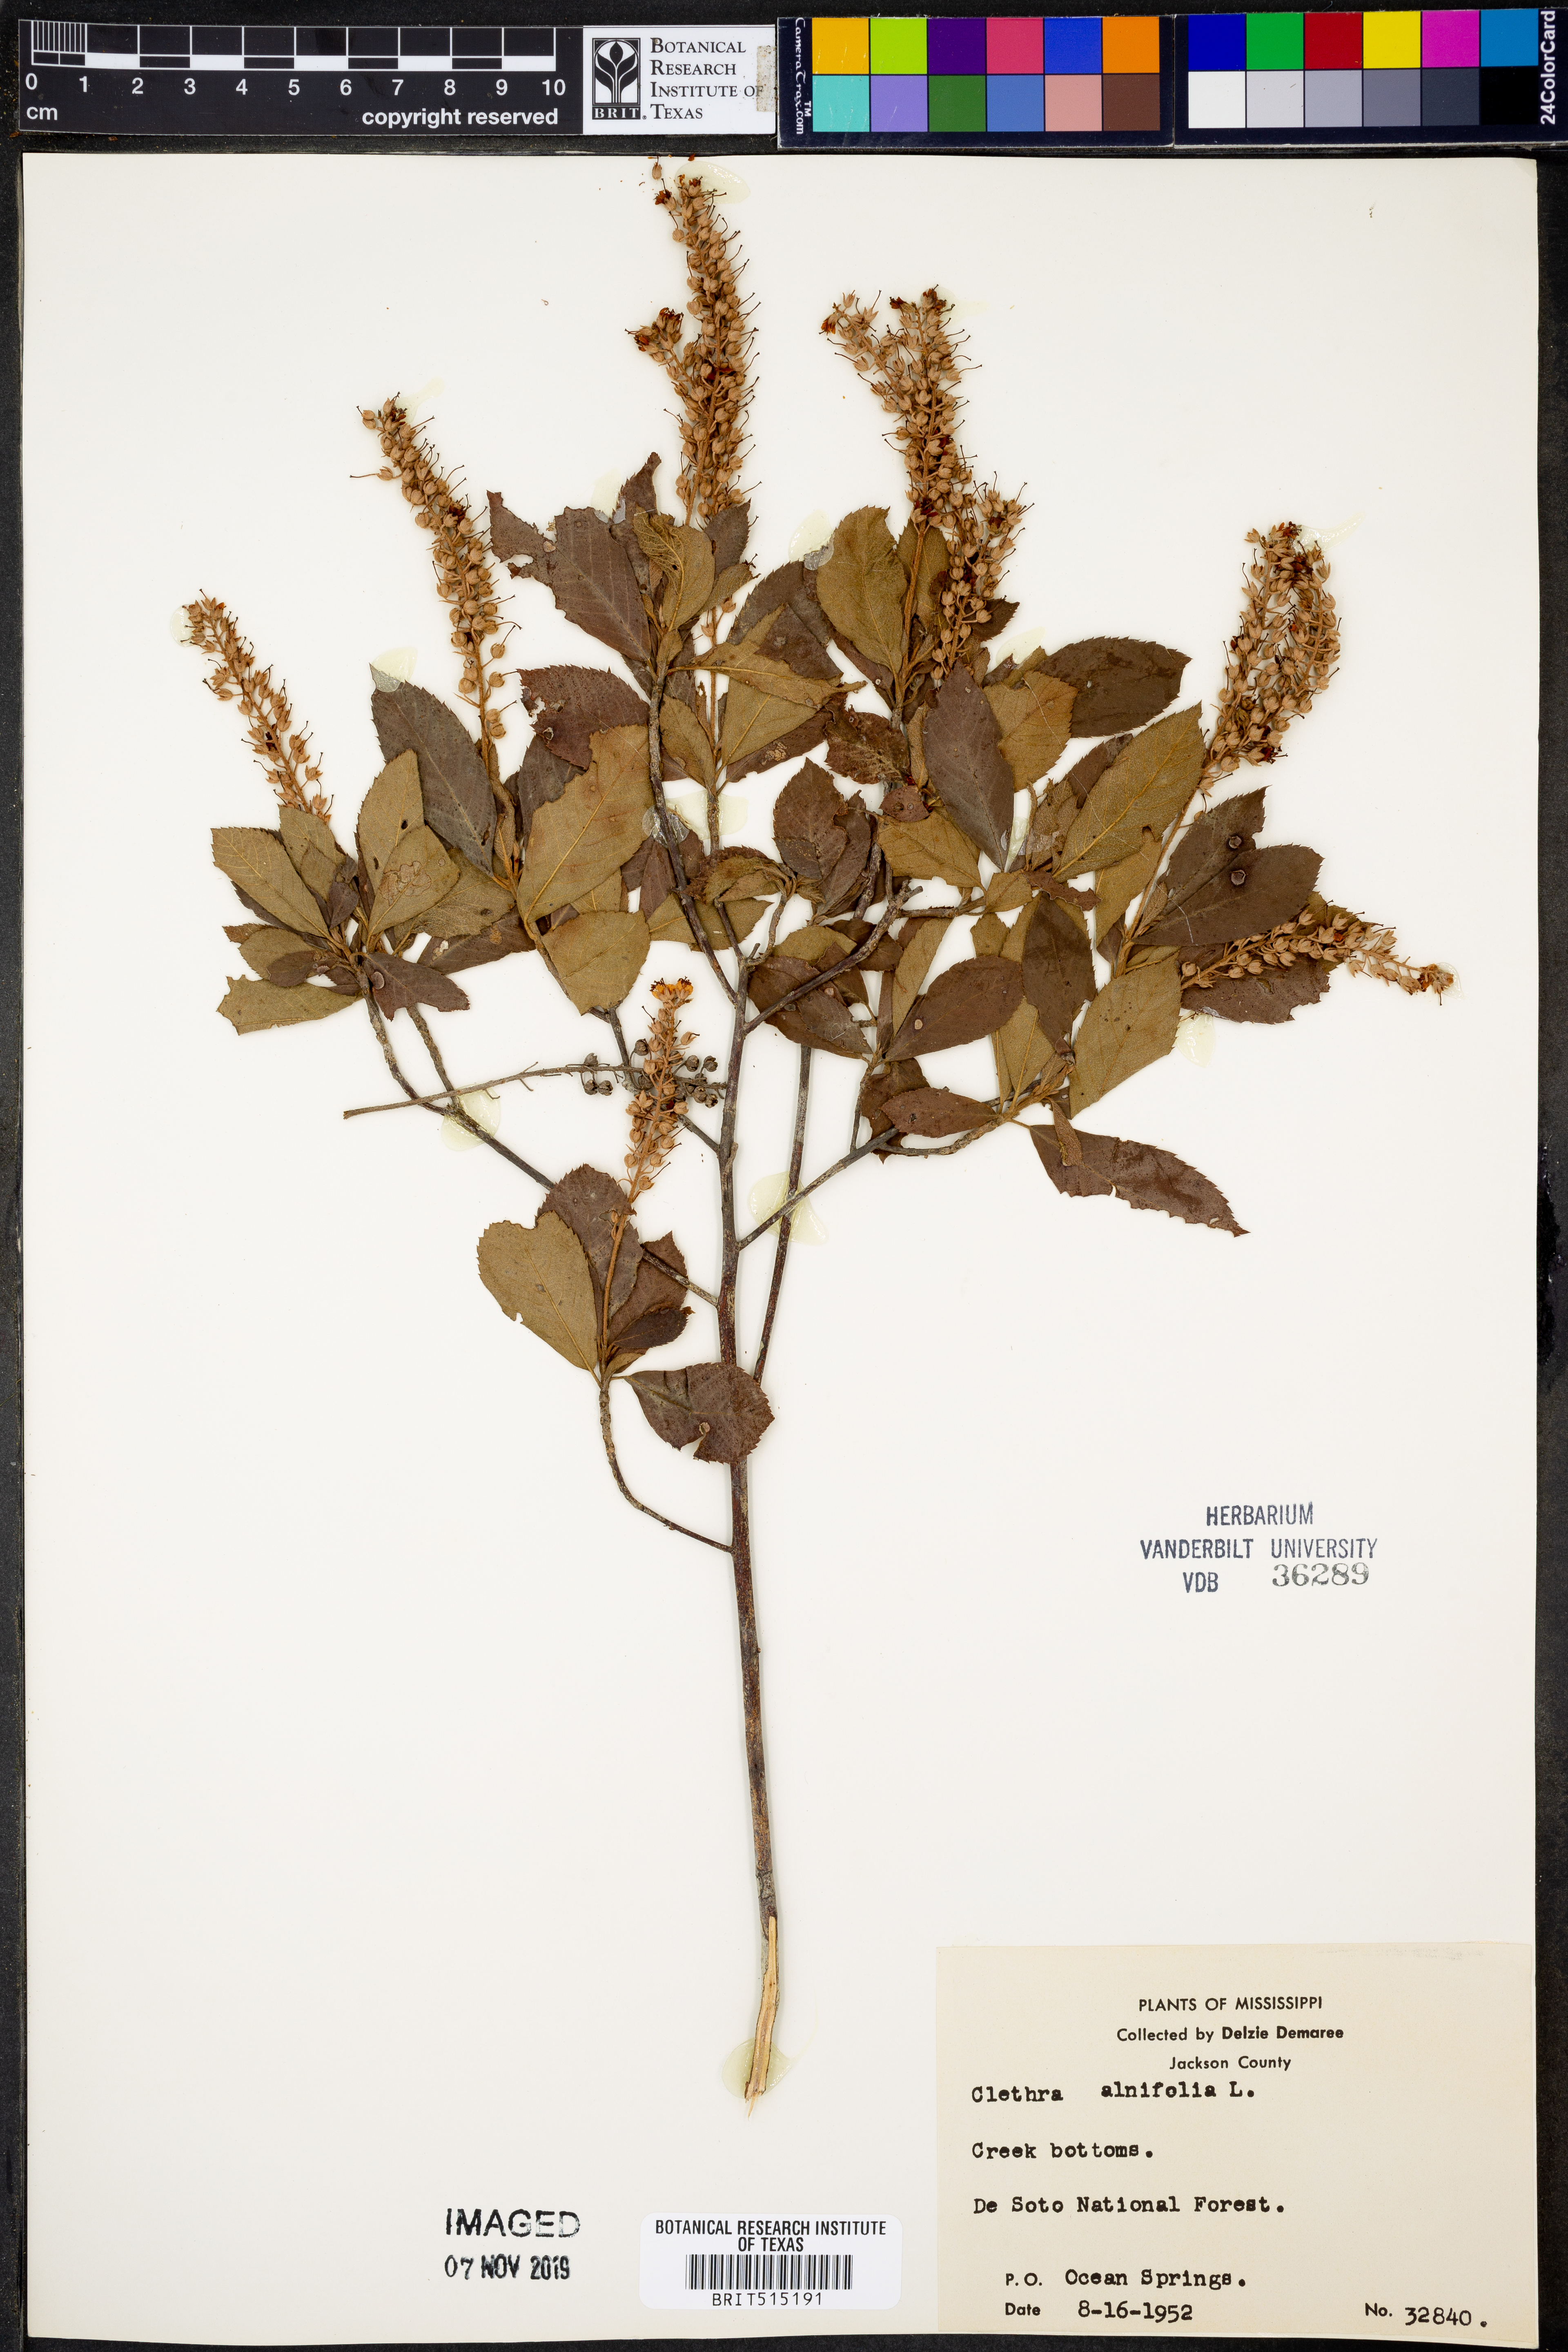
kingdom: Plantae
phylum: Tracheophyta
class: Magnoliopsida
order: Ericales
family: Clethraceae
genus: Clethra
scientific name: Clethra alnifolia
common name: Sweet pepperbush
